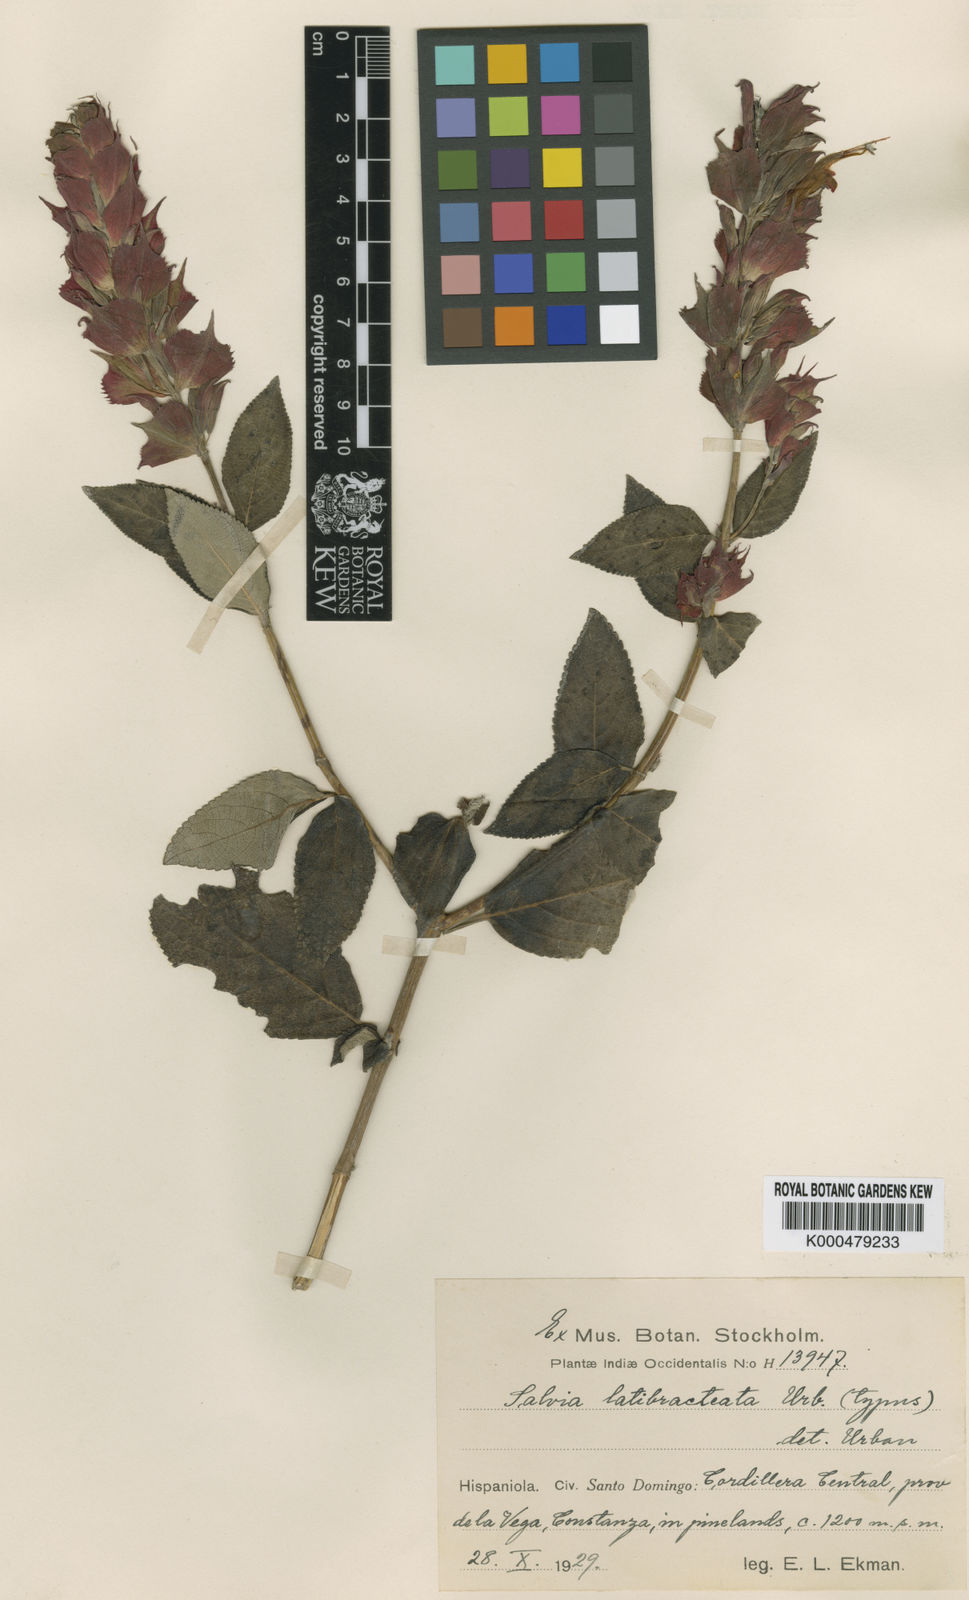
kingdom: Plantae
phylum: Tracheophyta
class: Magnoliopsida
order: Lamiales
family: Lamiaceae
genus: Salvia
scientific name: Salvia tuerckheimii
